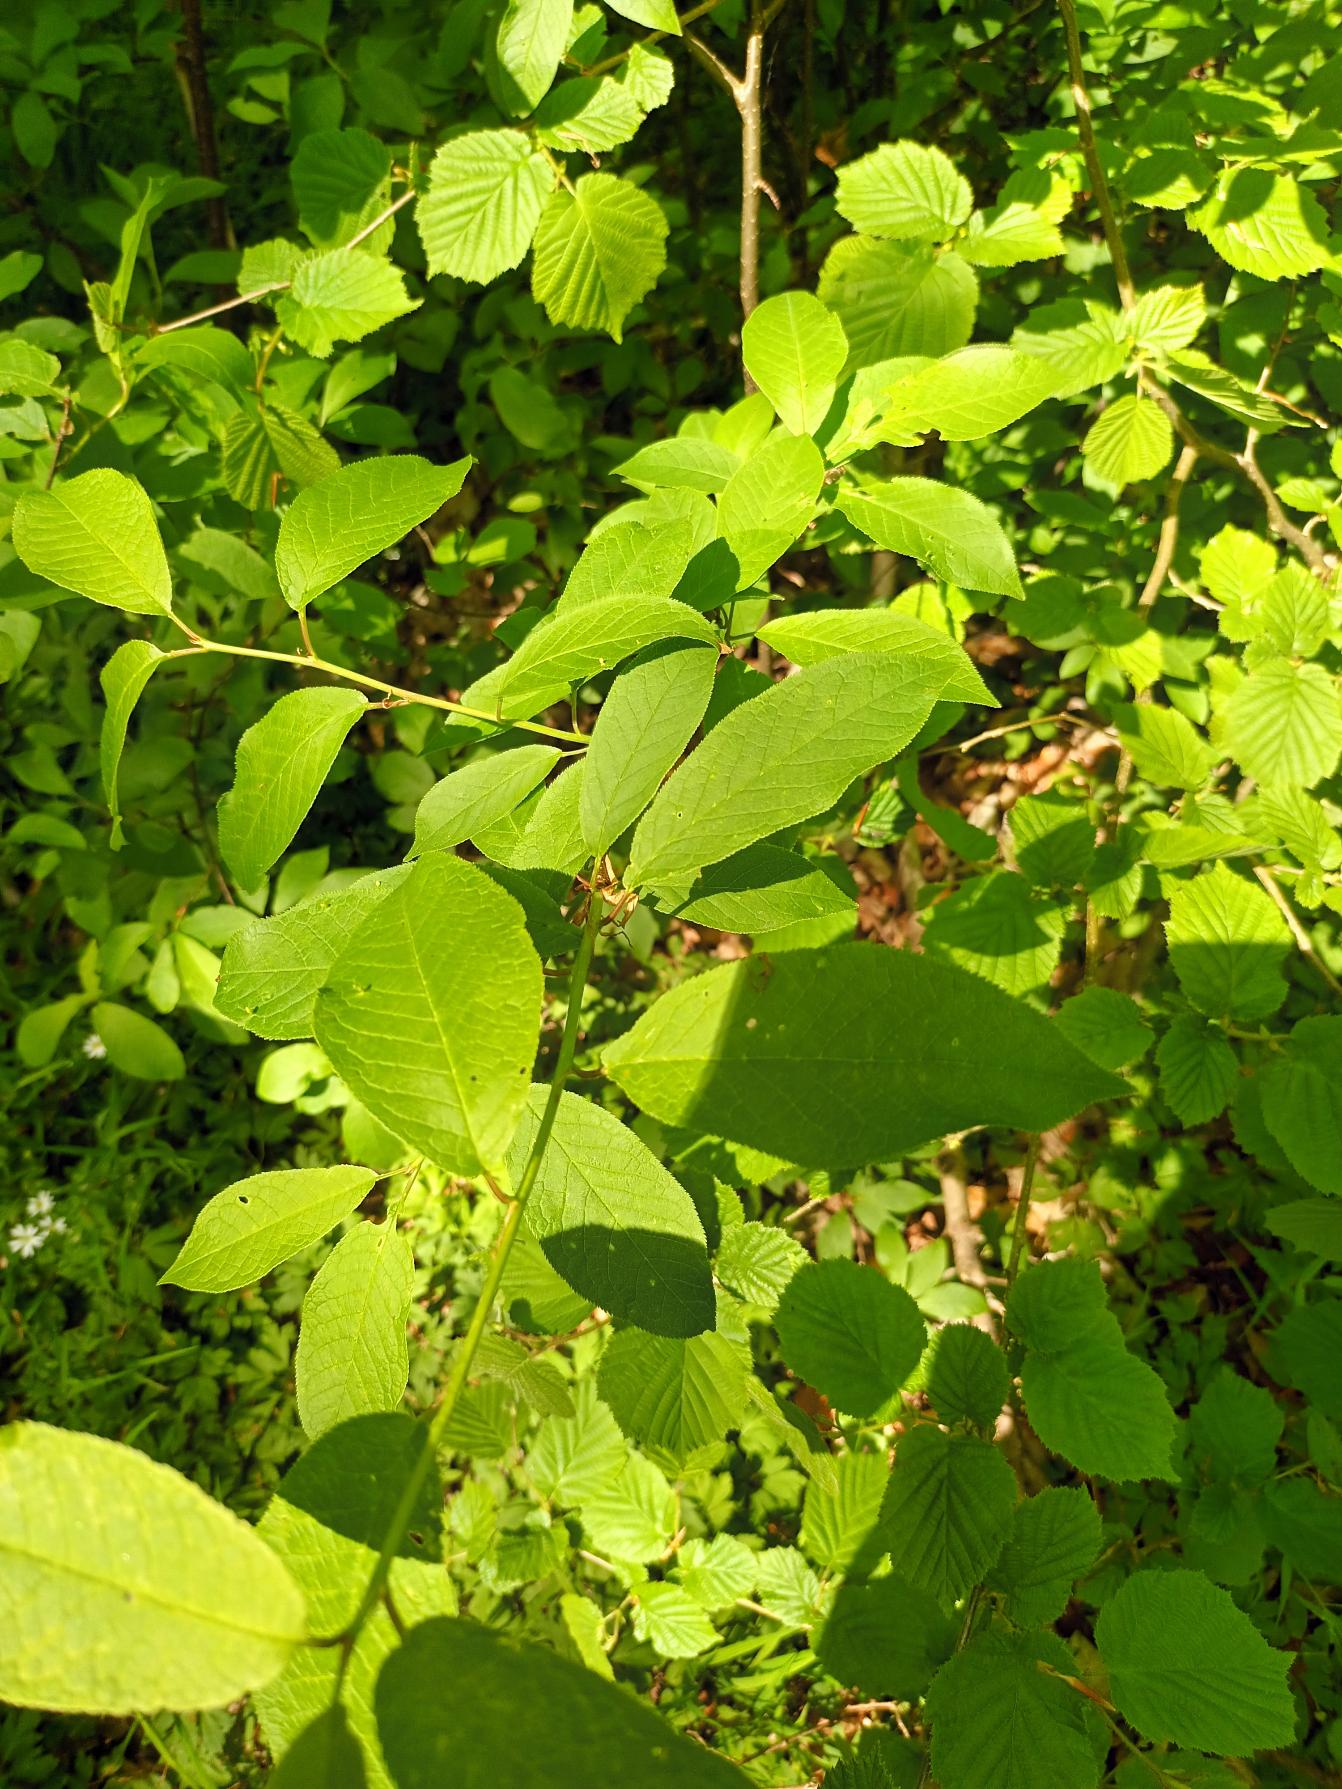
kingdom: Plantae
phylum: Tracheophyta
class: Magnoliopsida
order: Rosales
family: Rosaceae
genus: Prunus
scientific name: Prunus padus
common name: Almindelig hæg
